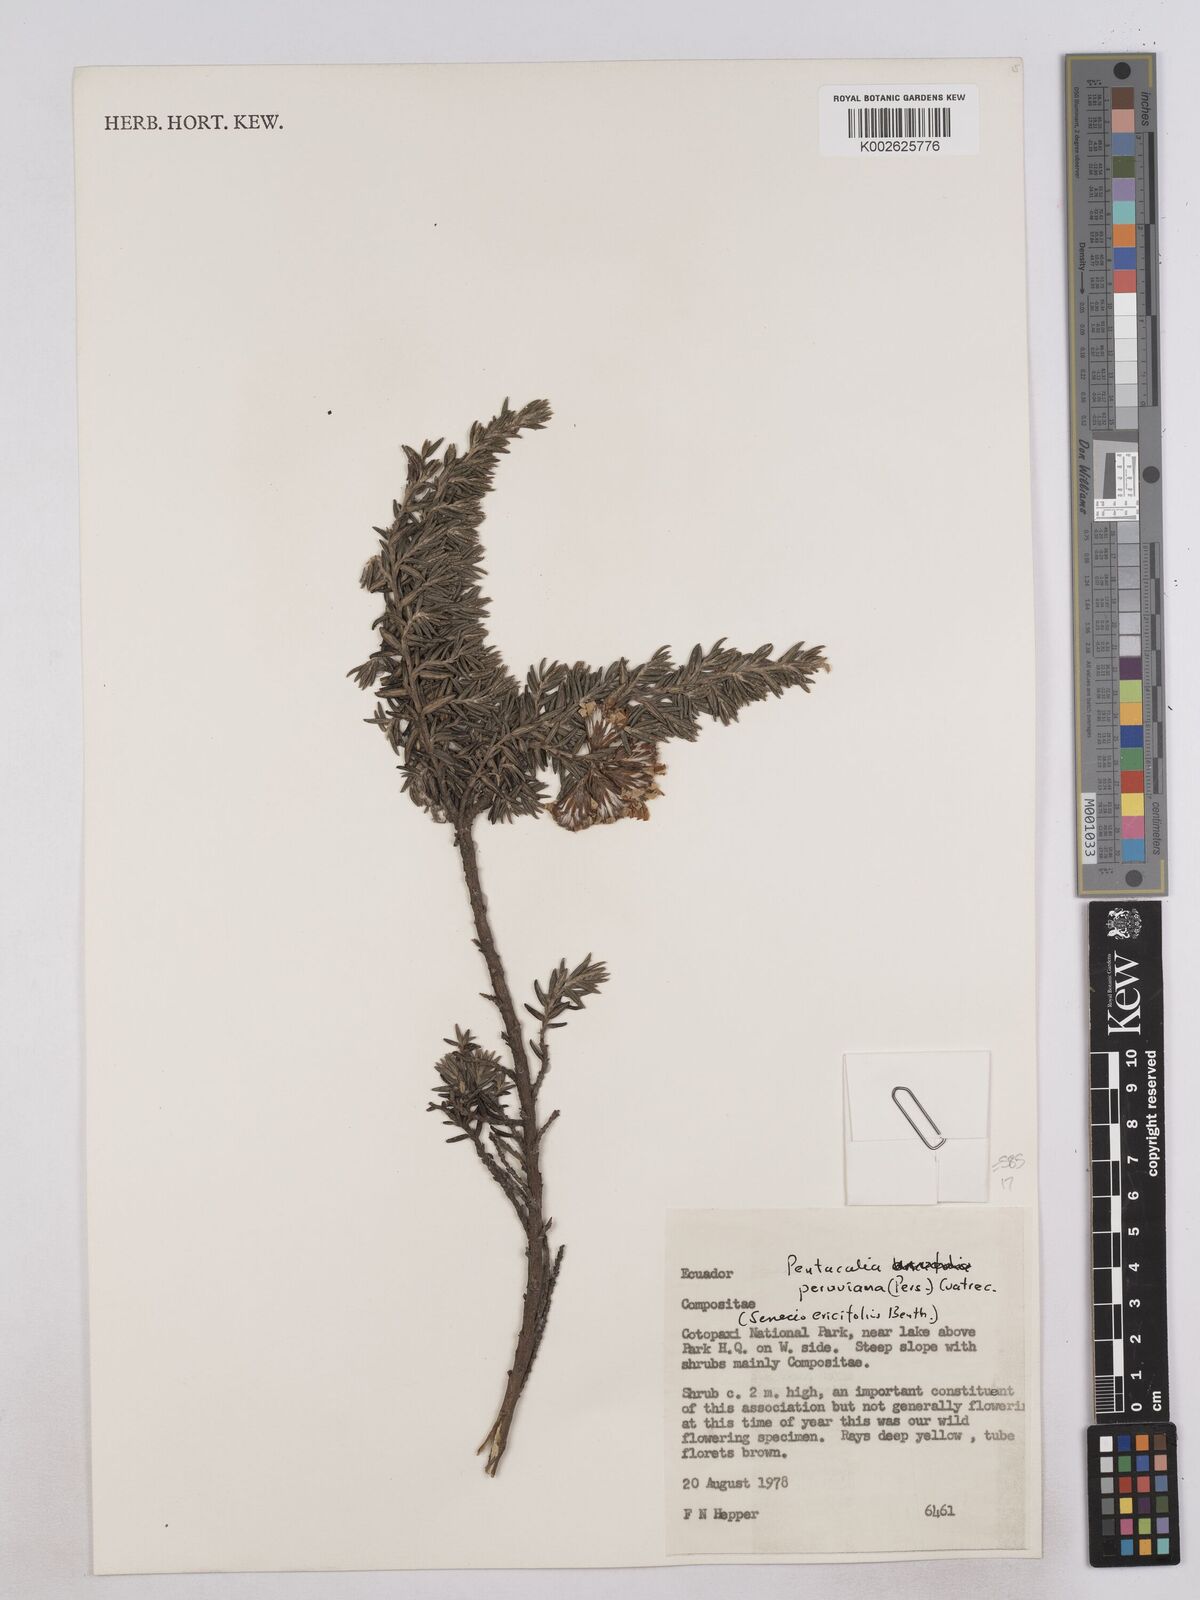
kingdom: Plantae
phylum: Tracheophyta
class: Magnoliopsida
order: Asterales
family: Asteraceae
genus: Monticalia
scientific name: Monticalia peruviana
